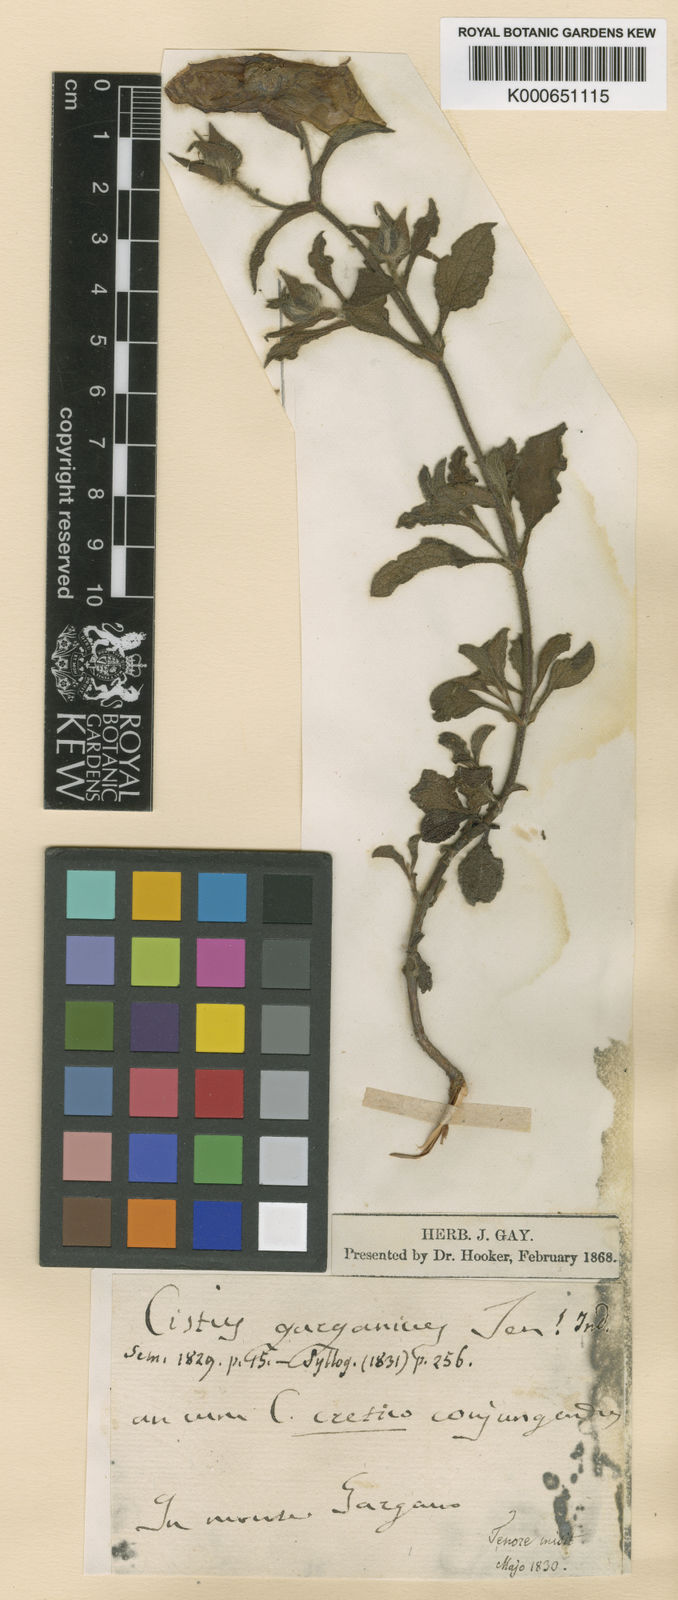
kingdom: Plantae
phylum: Tracheophyta
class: Magnoliopsida
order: Malvales
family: Cistaceae
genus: Cistus
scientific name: Cistus incanus
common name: Hairy rockrose
